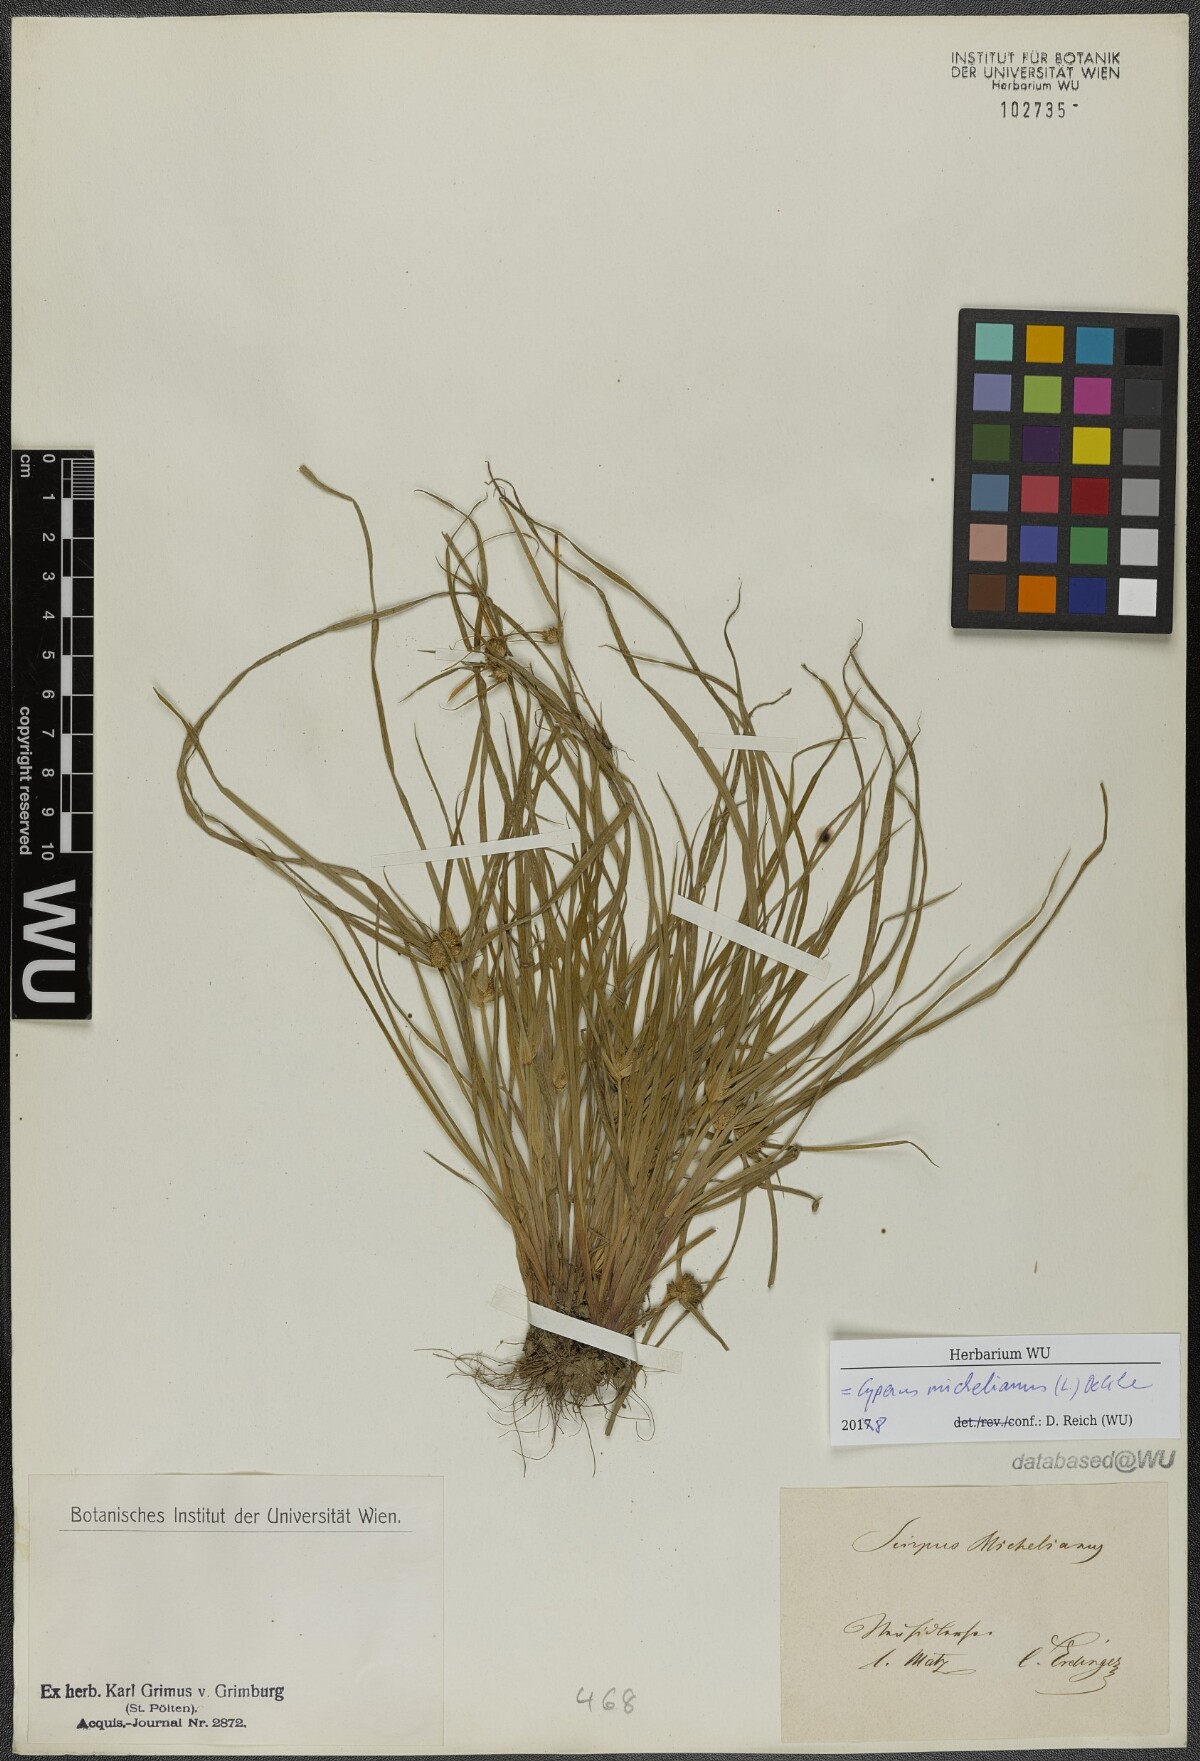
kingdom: Plantae
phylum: Tracheophyta
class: Liliopsida
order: Poales
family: Cyperaceae
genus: Cyperus
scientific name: Cyperus michelianus
